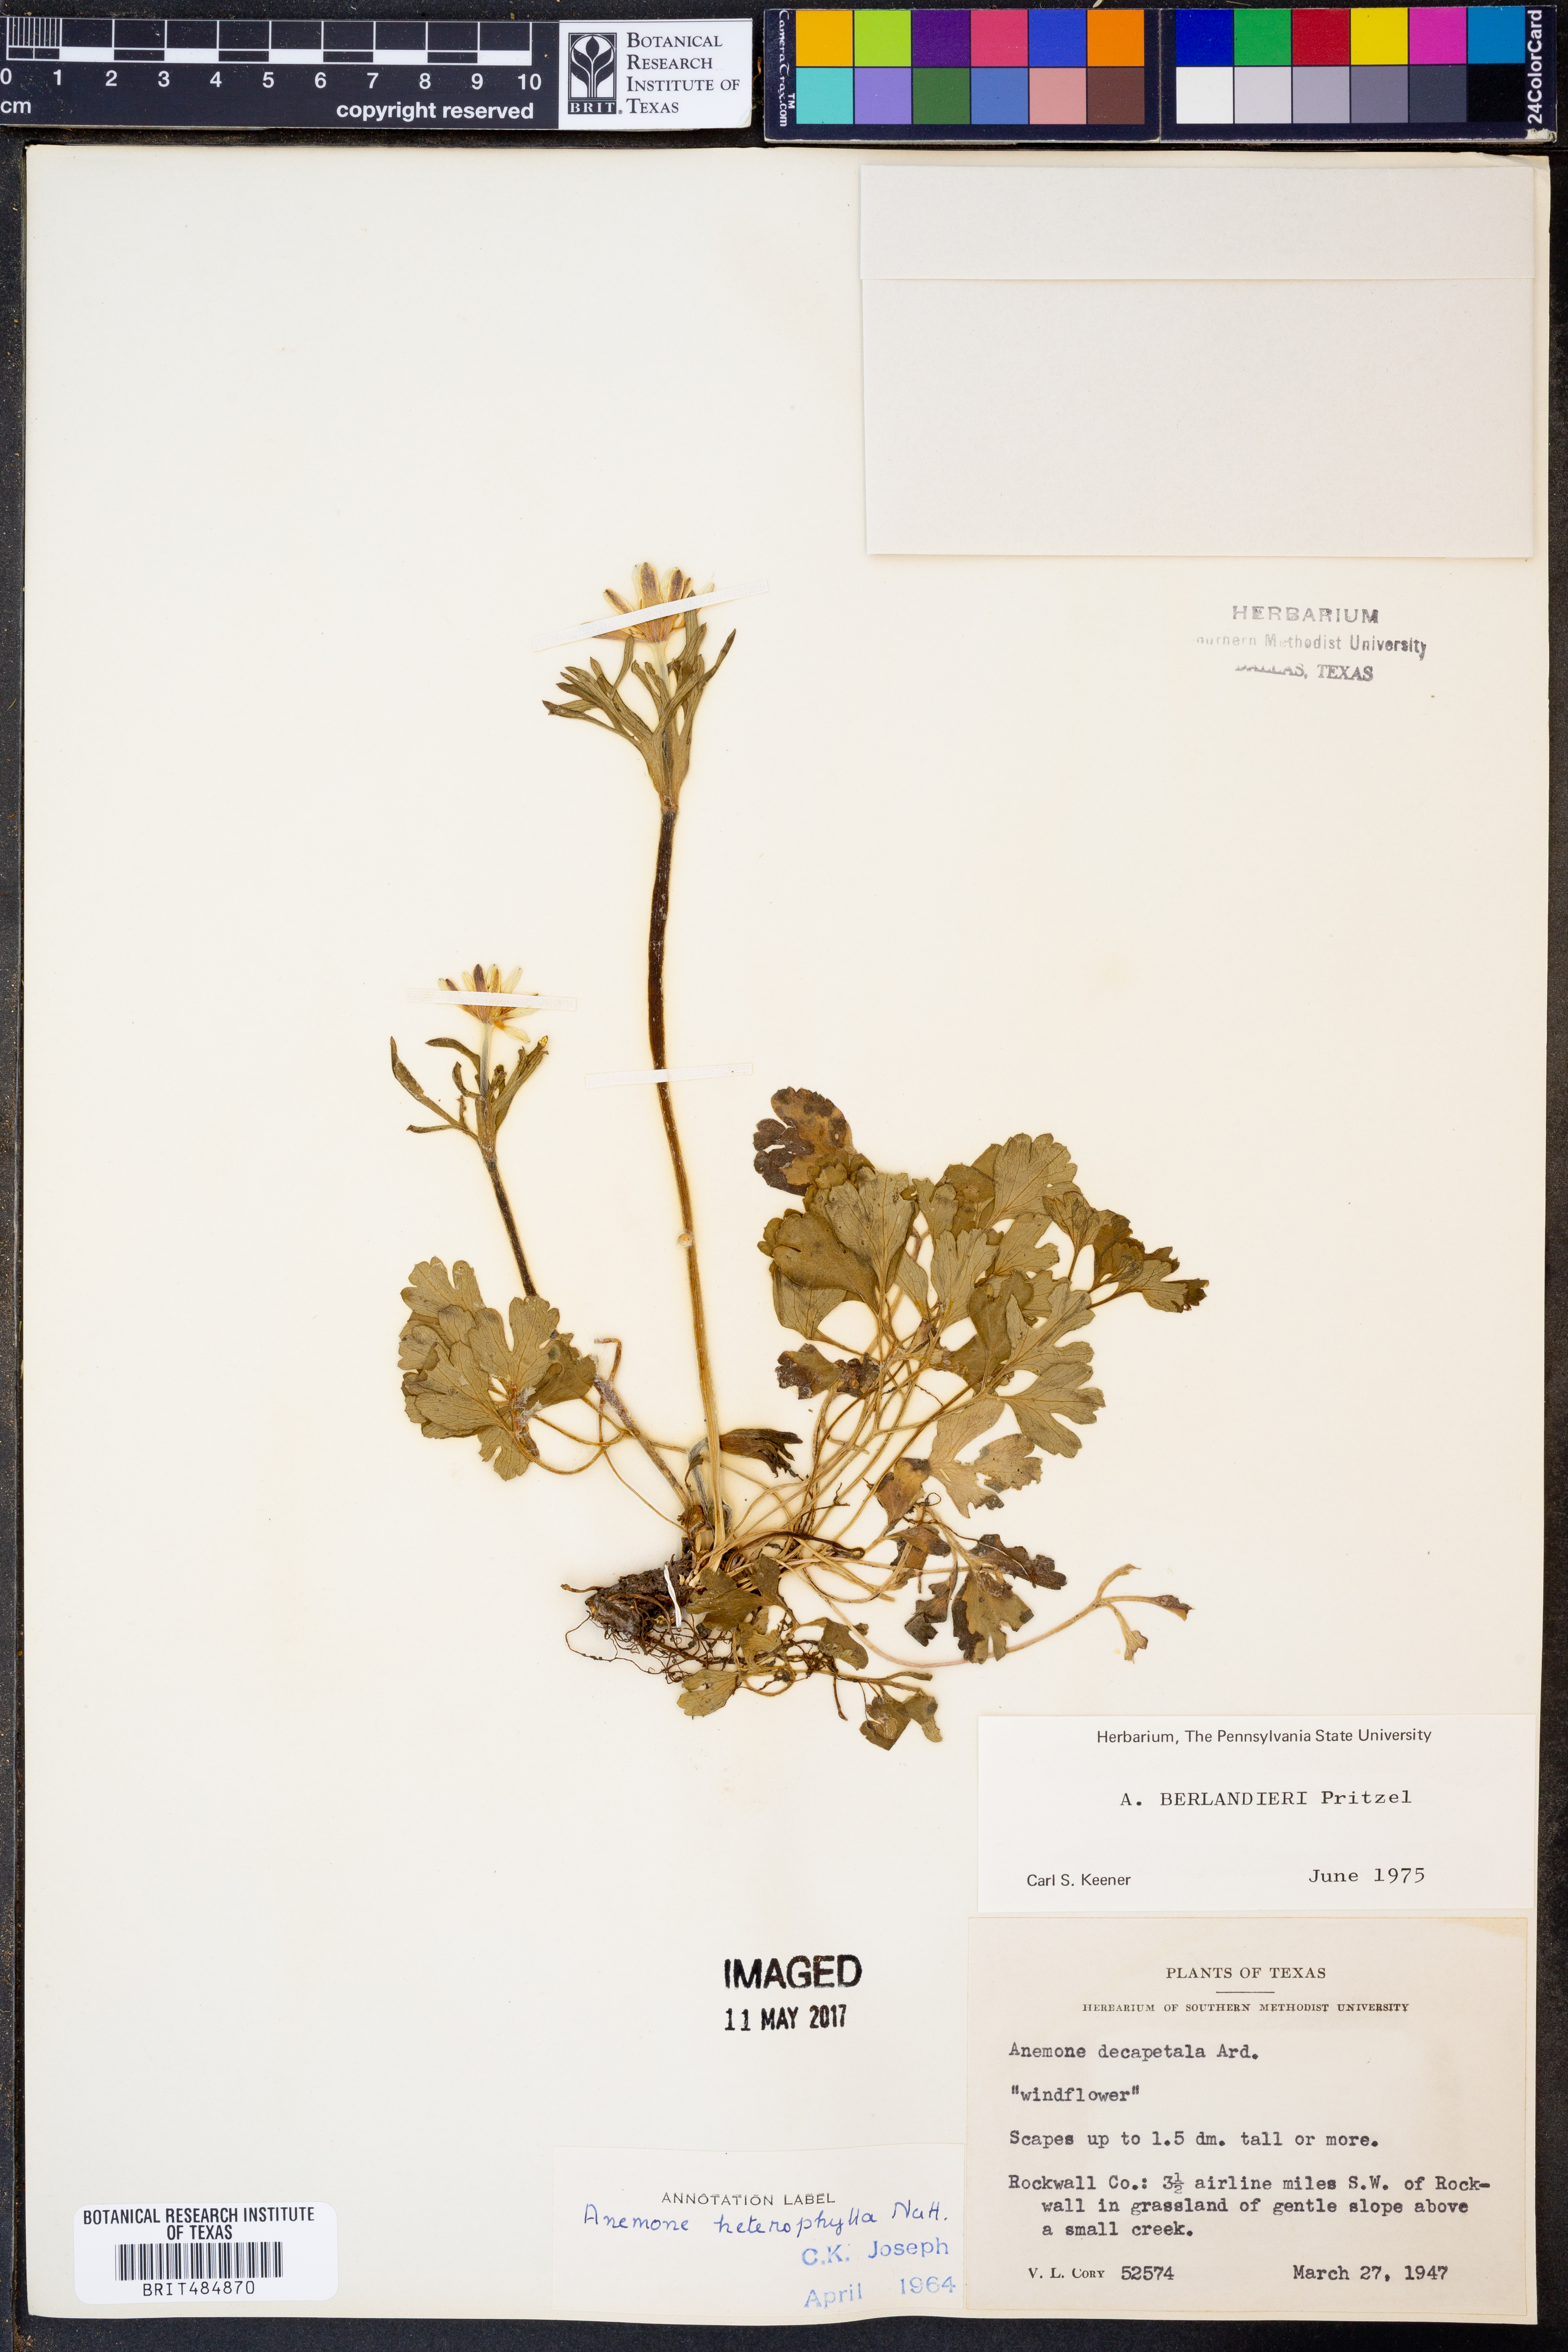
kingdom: Plantae
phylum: Tracheophyta
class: Magnoliopsida
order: Ranunculales
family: Ranunculaceae
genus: Anemone
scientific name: Anemone berlandieri
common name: Ten-petal anemone
